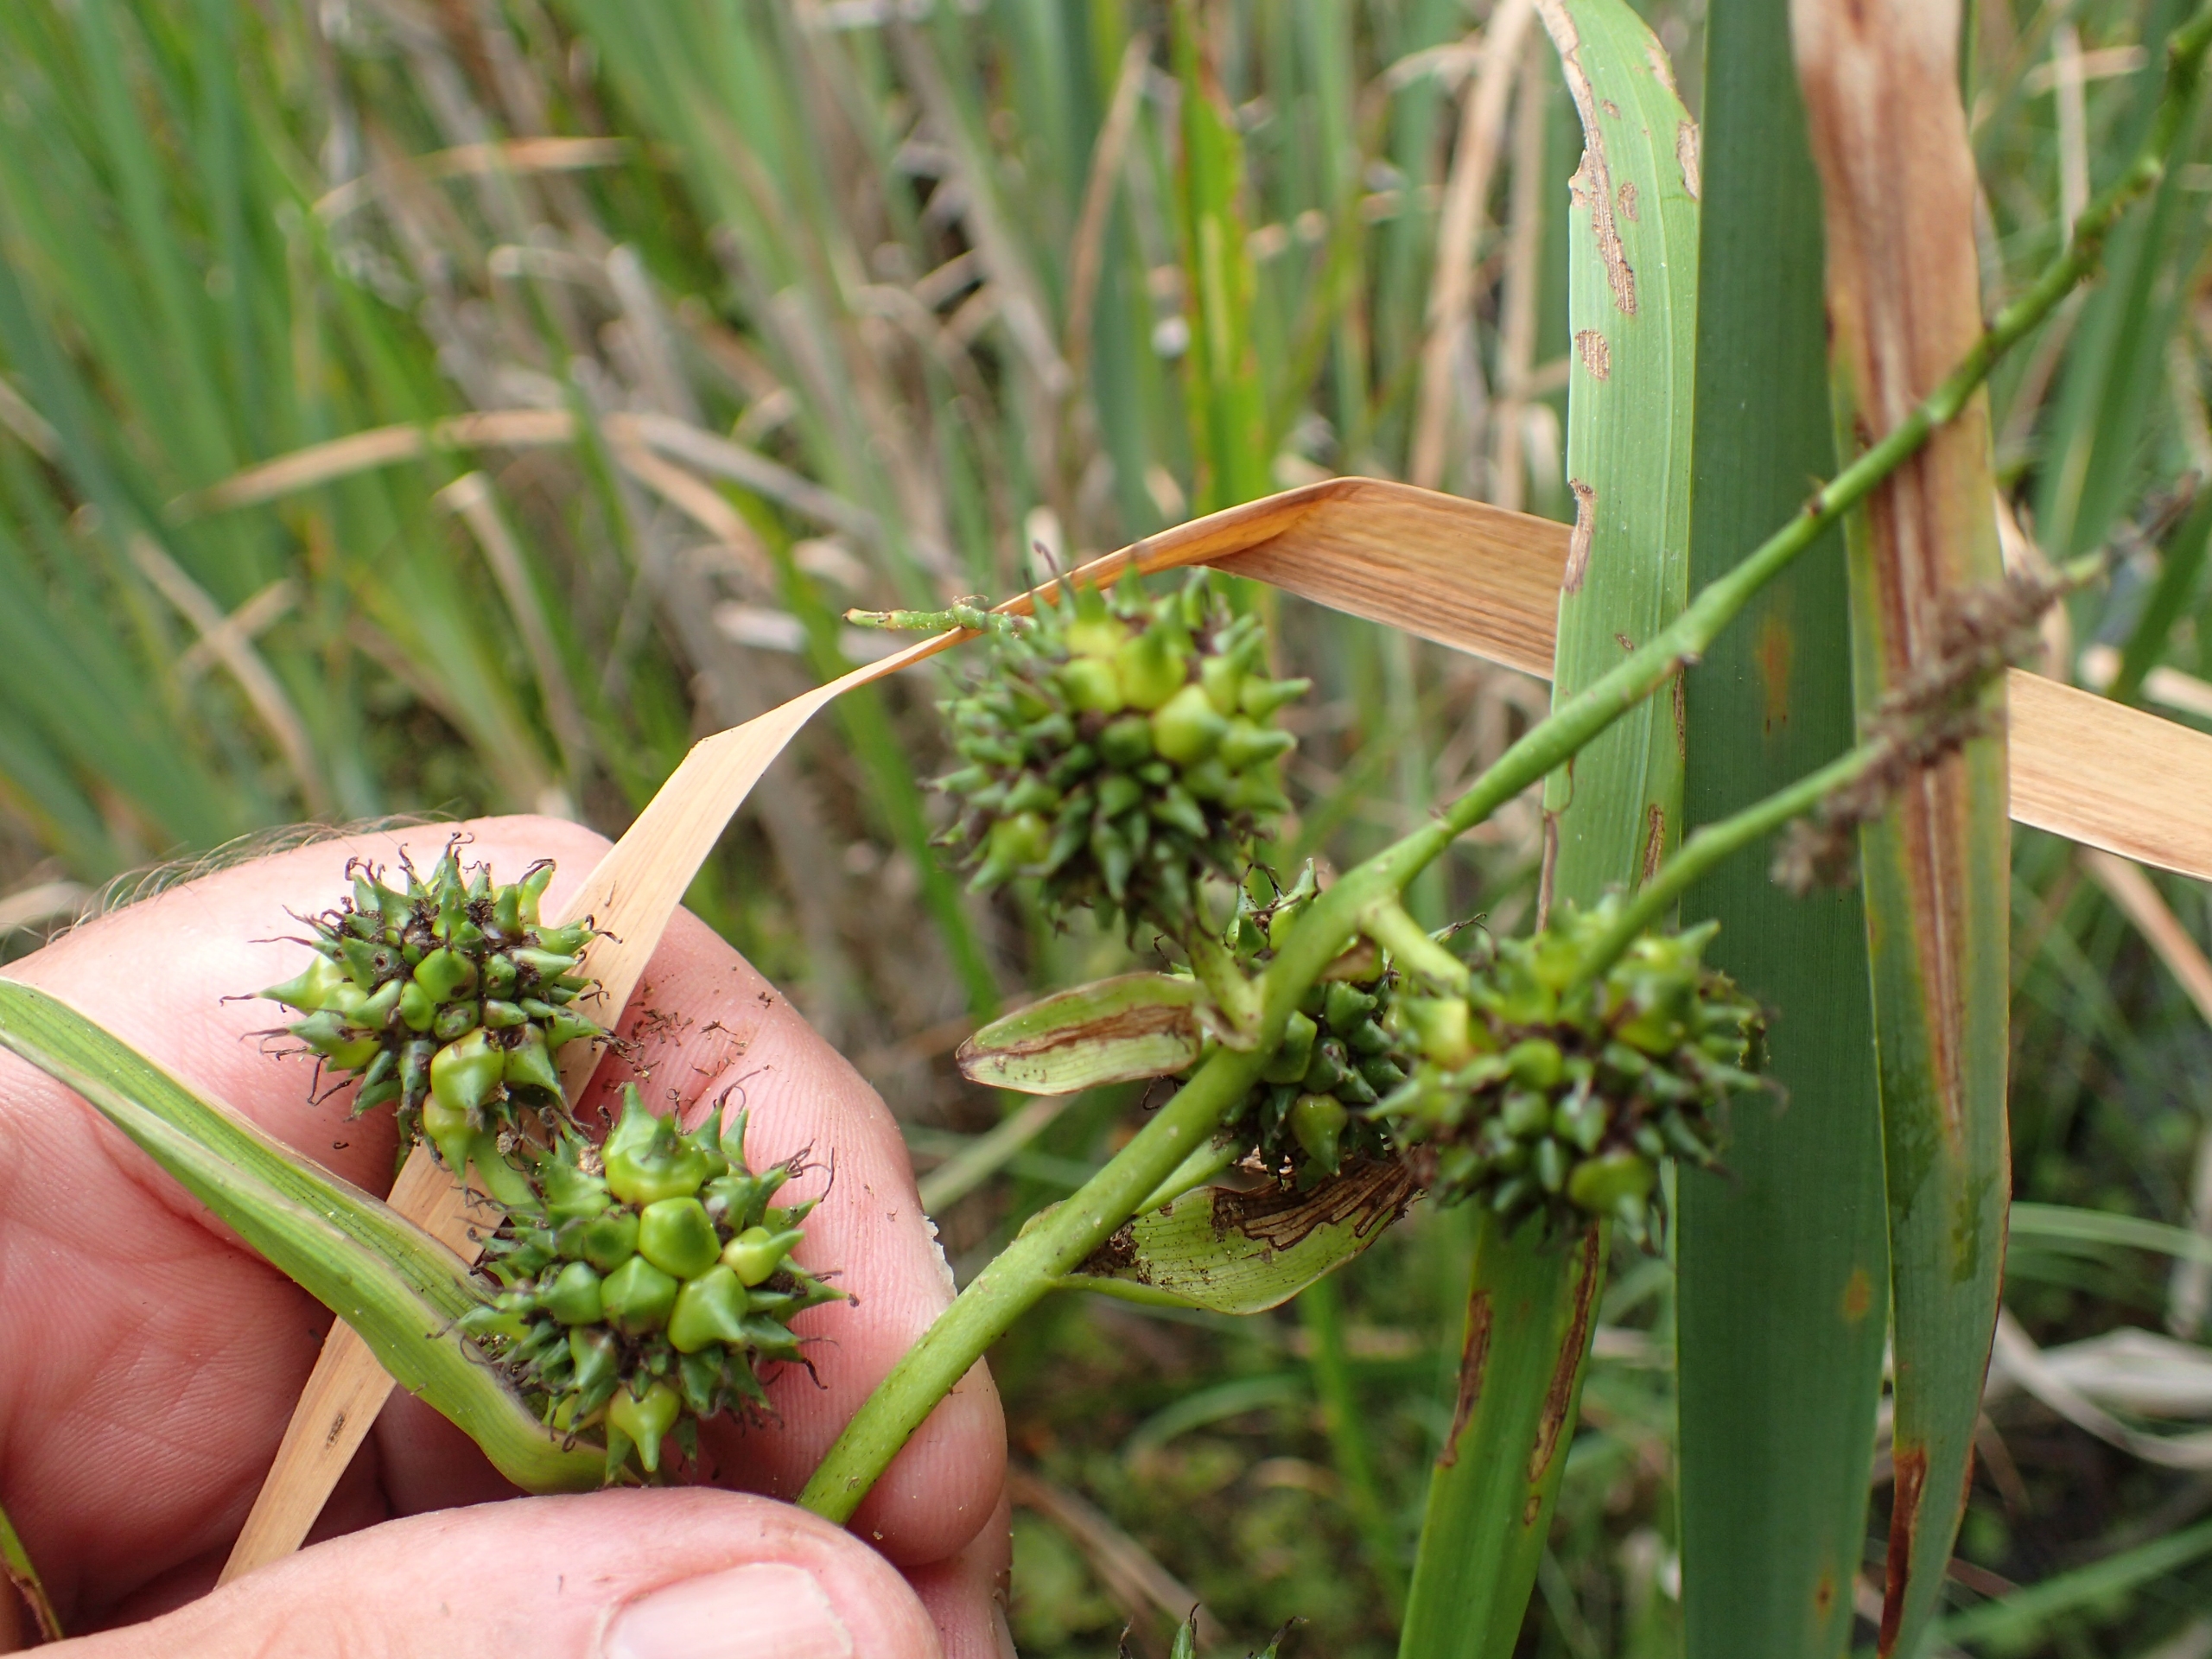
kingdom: Plantae
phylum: Tracheophyta
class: Liliopsida
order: Poales
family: Typhaceae
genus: Sparganium
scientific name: Sparganium erectum
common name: Kugle-pindsvineknop
